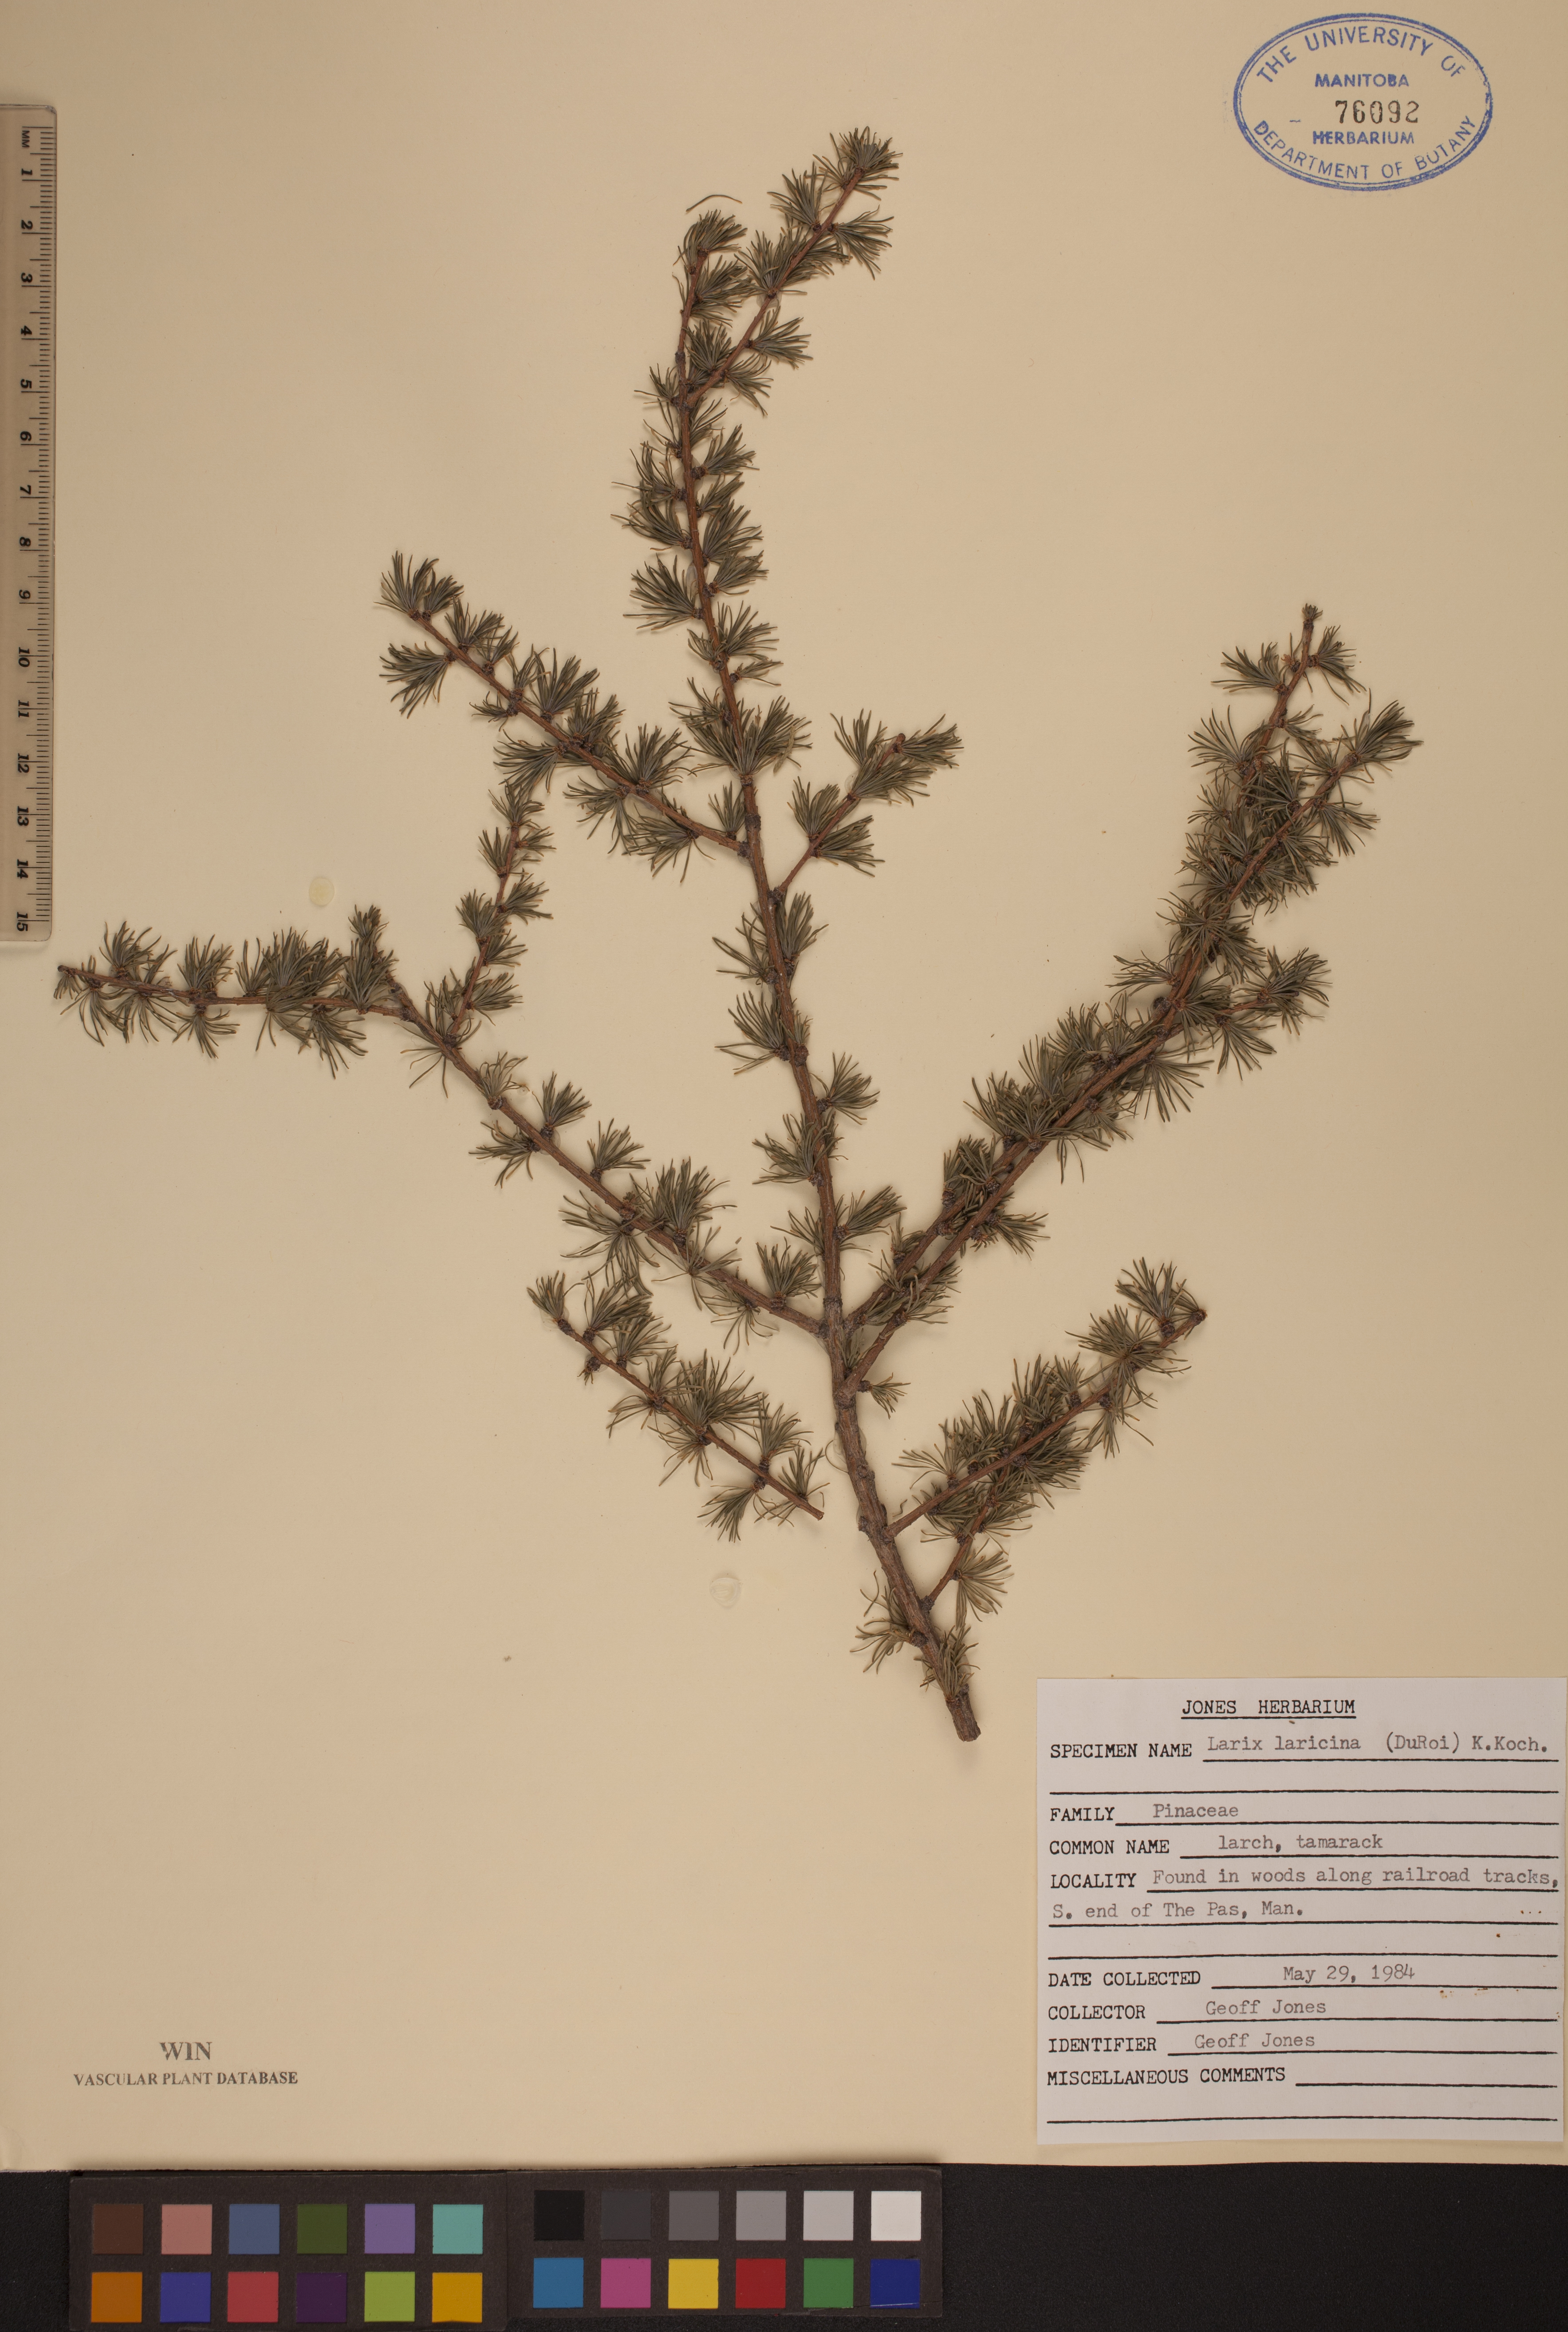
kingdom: Plantae
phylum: Tracheophyta
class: Pinopsida
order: Pinales
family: Pinaceae
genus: Larix
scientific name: Larix laricina
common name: American larch
